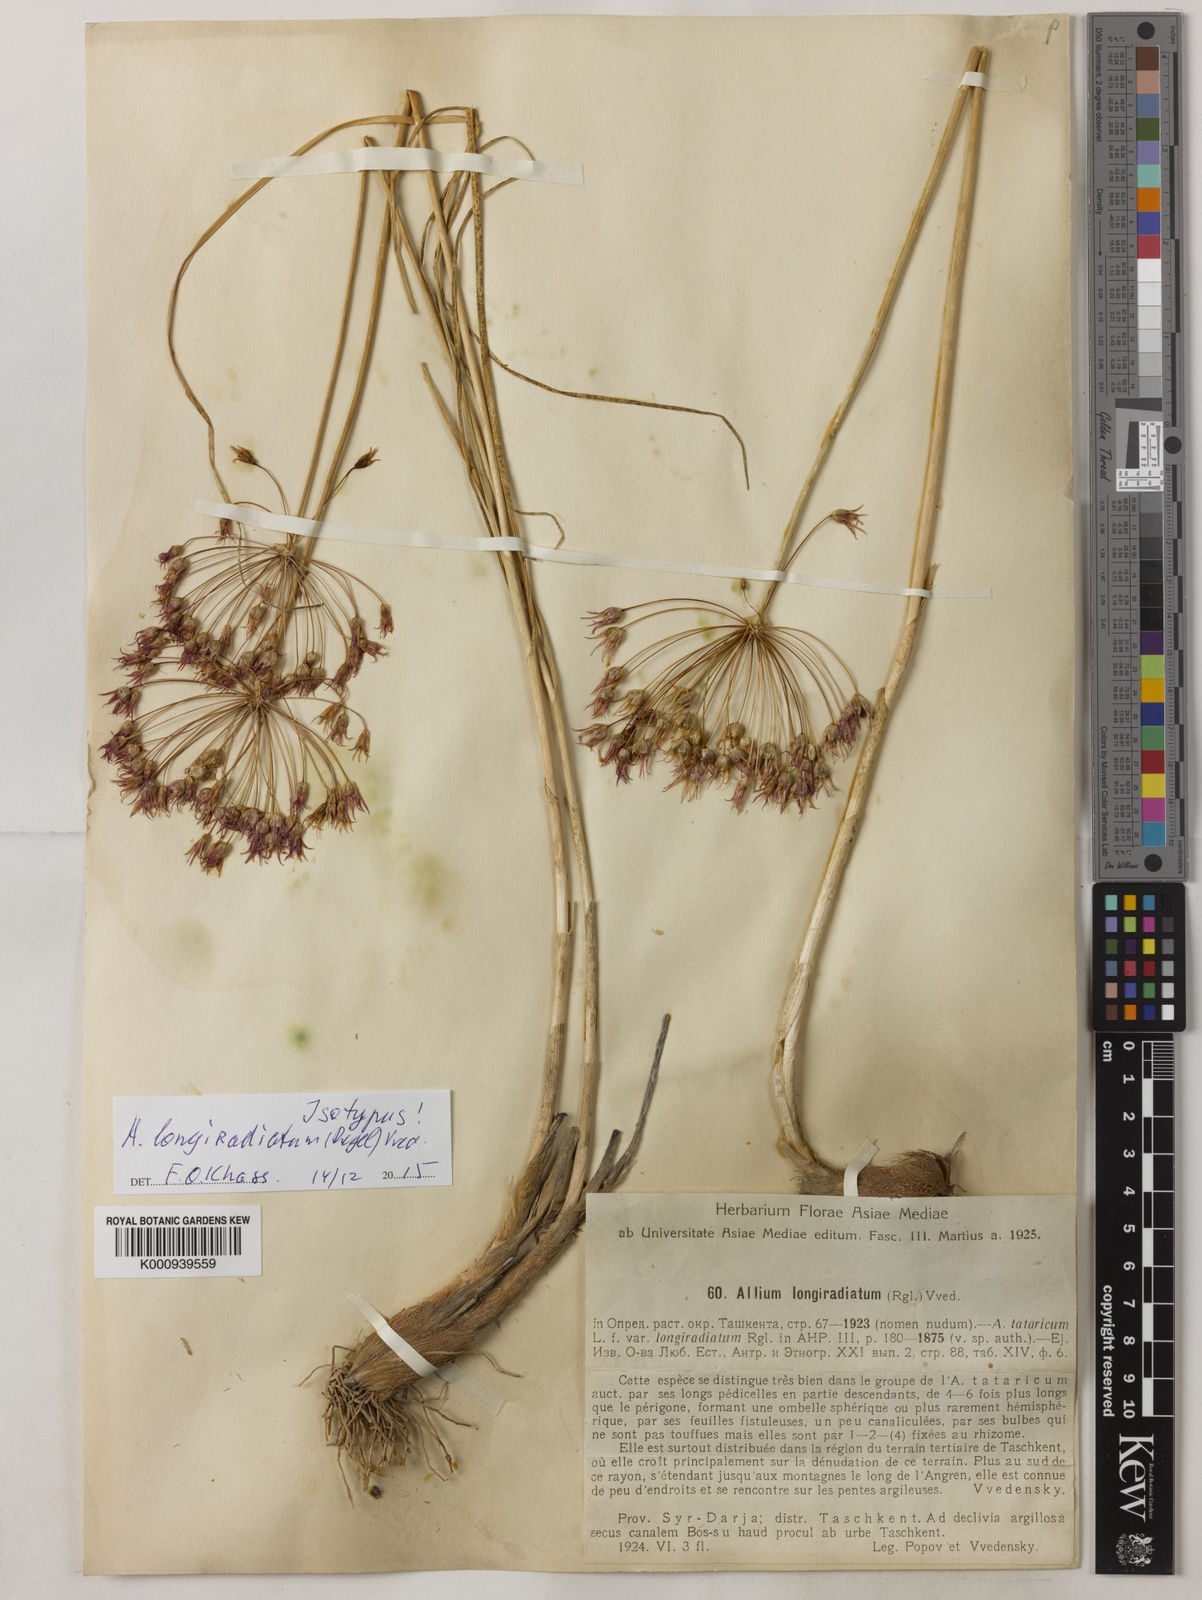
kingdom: Plantae
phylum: Tracheophyta
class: Liliopsida
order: Asparagales
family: Amaryllidaceae
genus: Allium
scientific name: Allium longiradiatum
